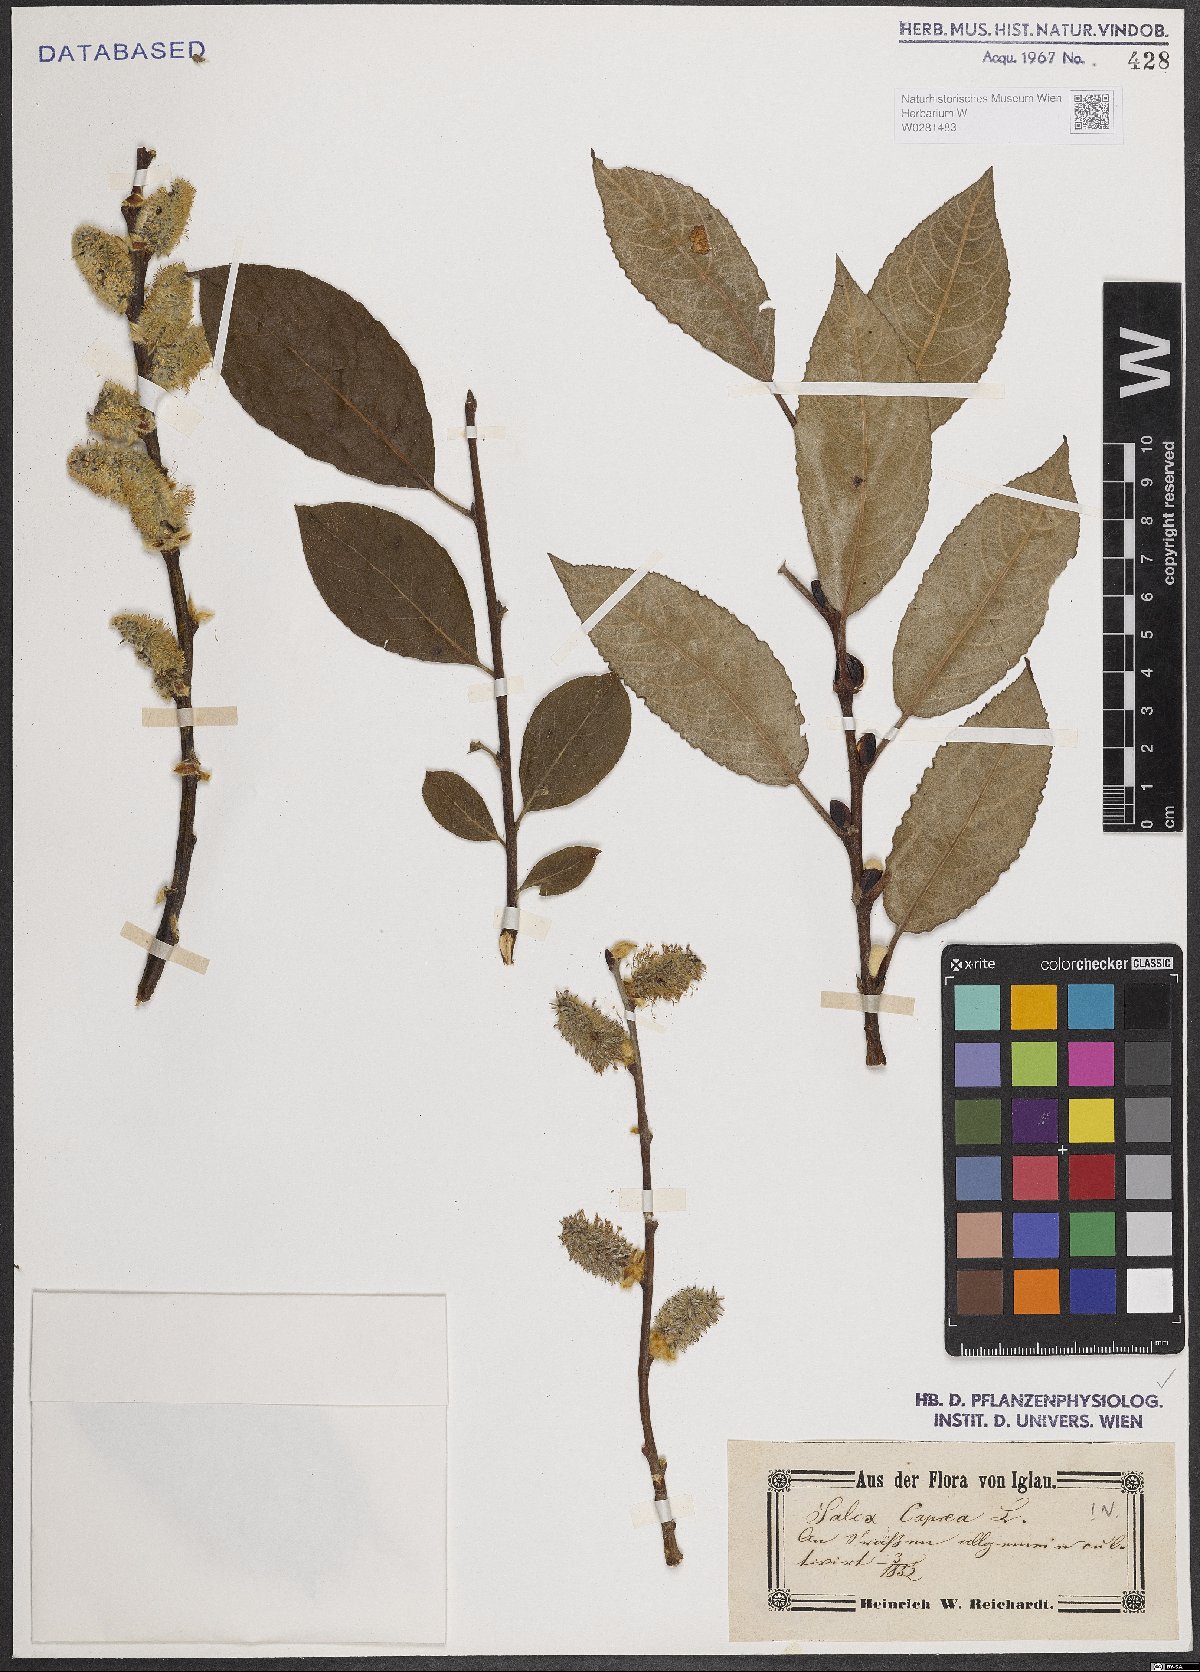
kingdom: Plantae
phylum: Tracheophyta
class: Magnoliopsida
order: Malpighiales
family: Salicaceae
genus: Salix
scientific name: Salix caprea
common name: Goat willow
